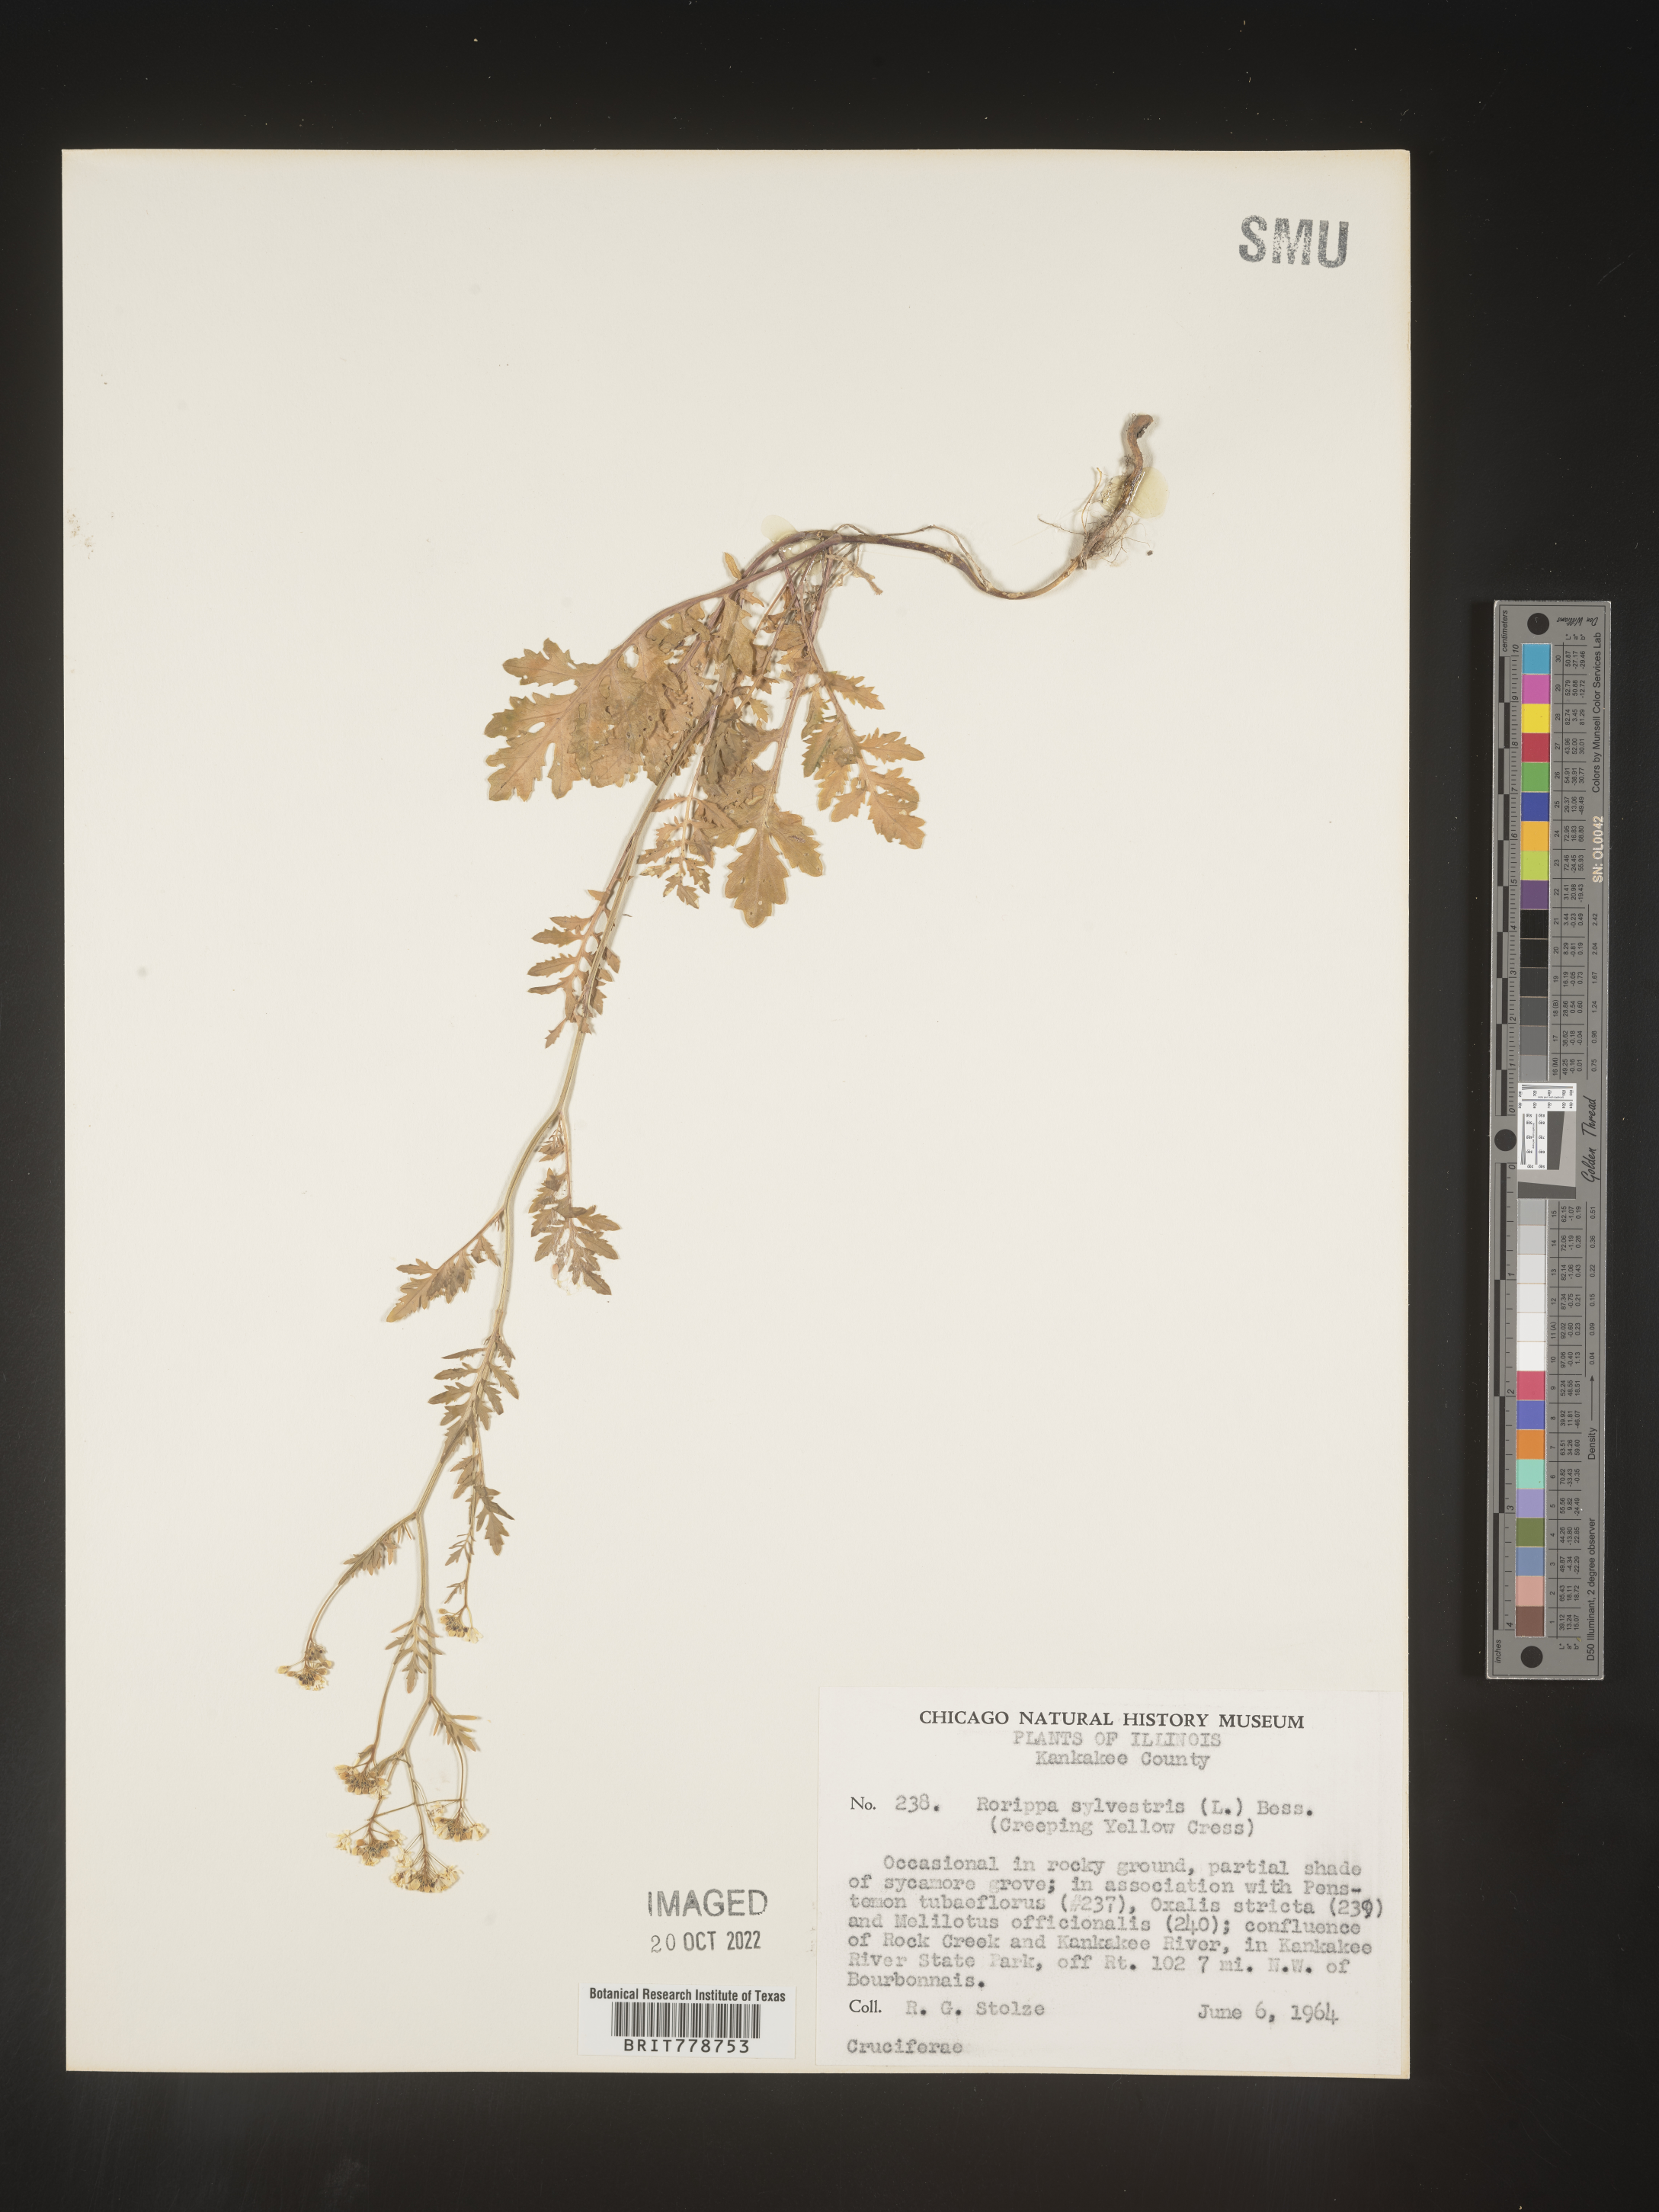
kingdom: Plantae
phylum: Tracheophyta
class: Magnoliopsida
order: Brassicales
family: Brassicaceae
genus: Rorippa
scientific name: Rorippa sylvestris
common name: Creeping yellowcress
